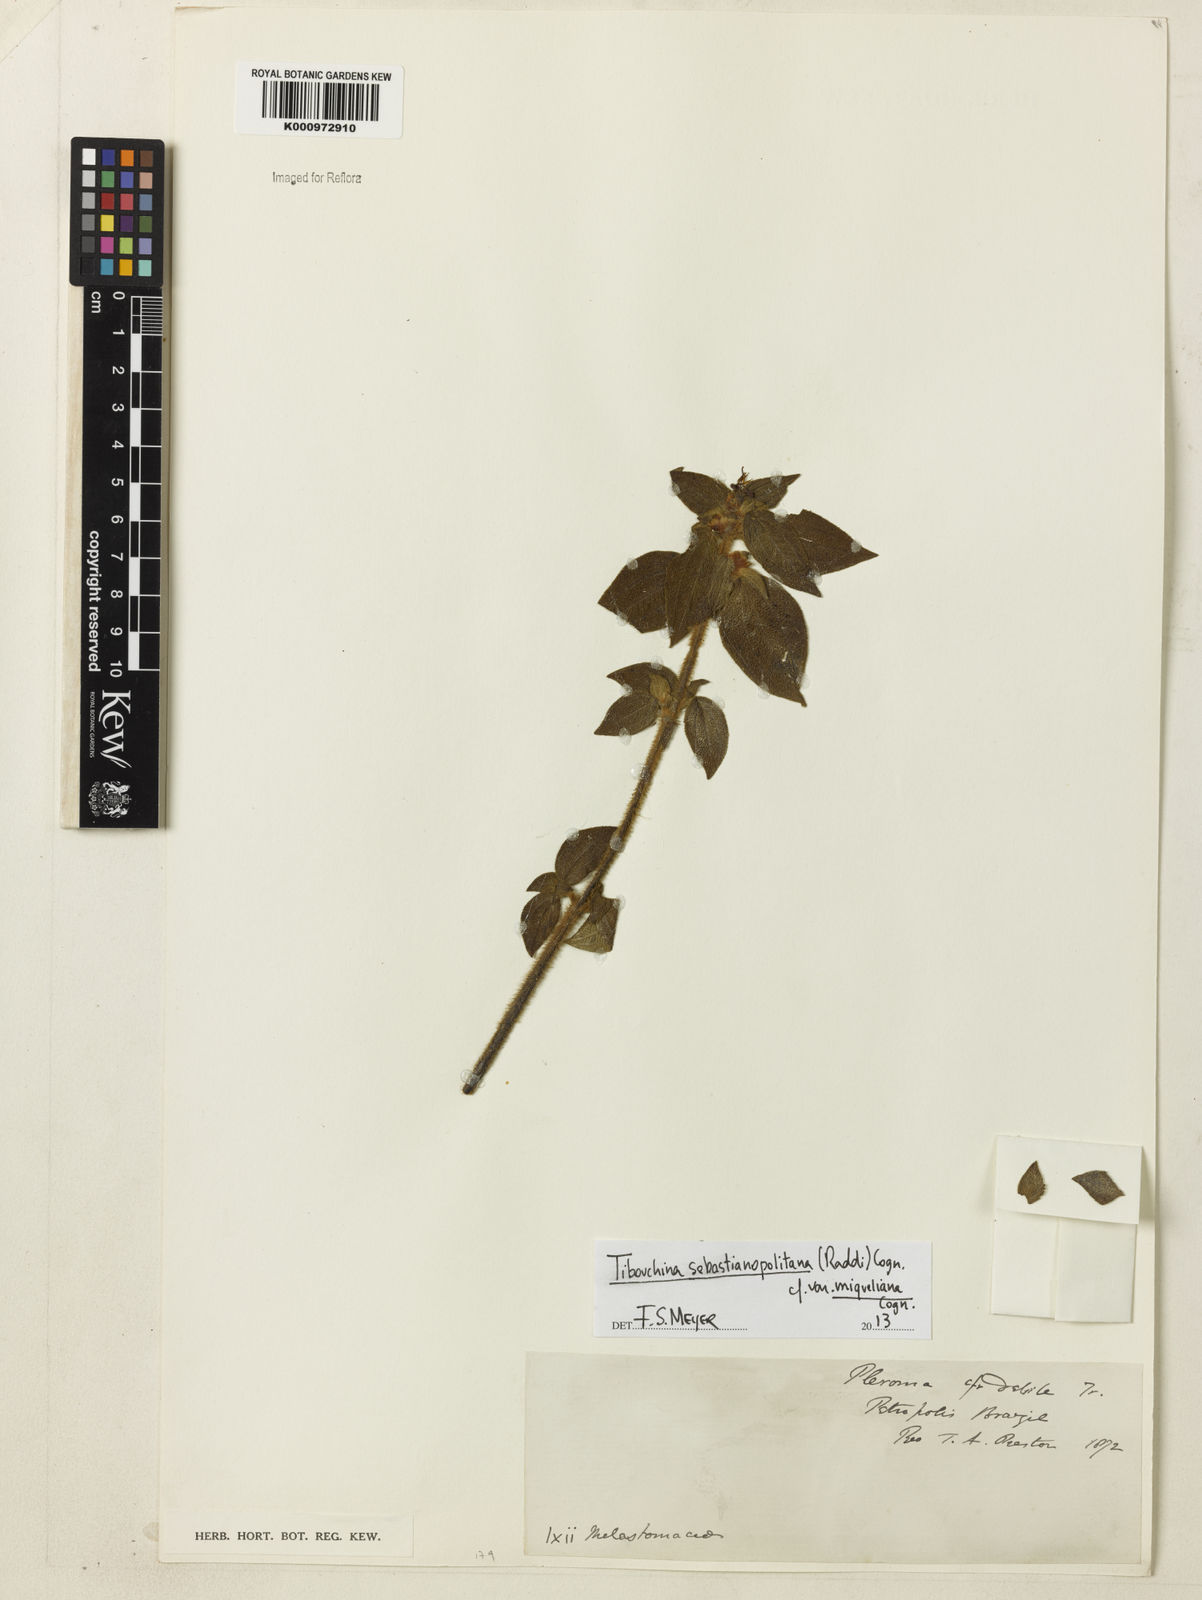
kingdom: Plantae
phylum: Tracheophyta
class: Magnoliopsida
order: Myrtales
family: Melastomataceae
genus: Chaetogastra
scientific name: Chaetogastra sebastianopolitana
